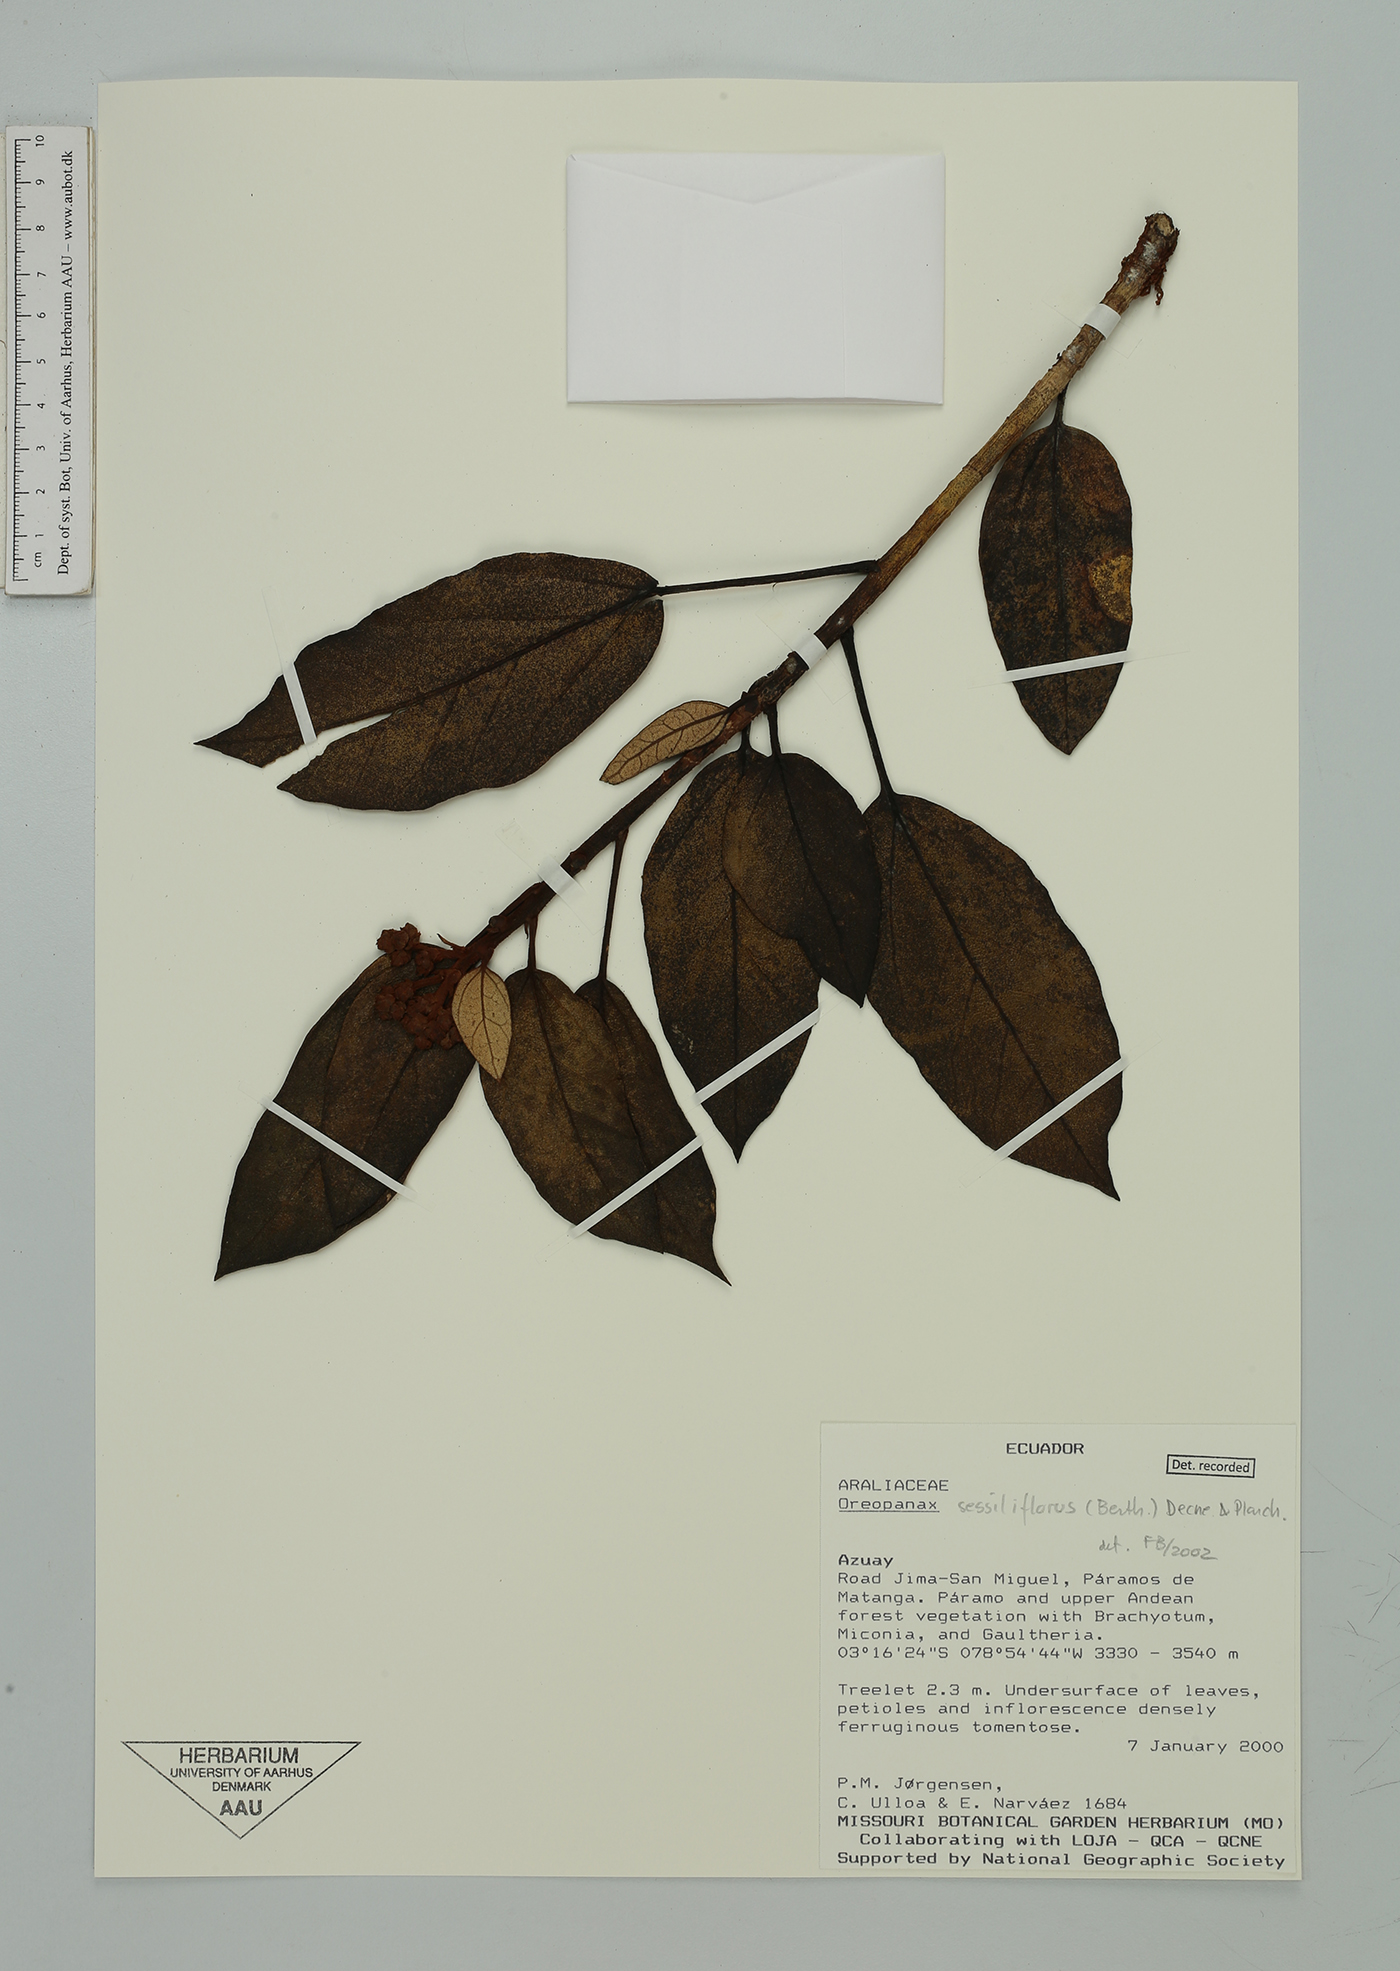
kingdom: Plantae
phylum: Tracheophyta
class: Magnoliopsida
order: Apiales
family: Araliaceae
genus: Oreopanax
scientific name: Oreopanax sessiliflorus
